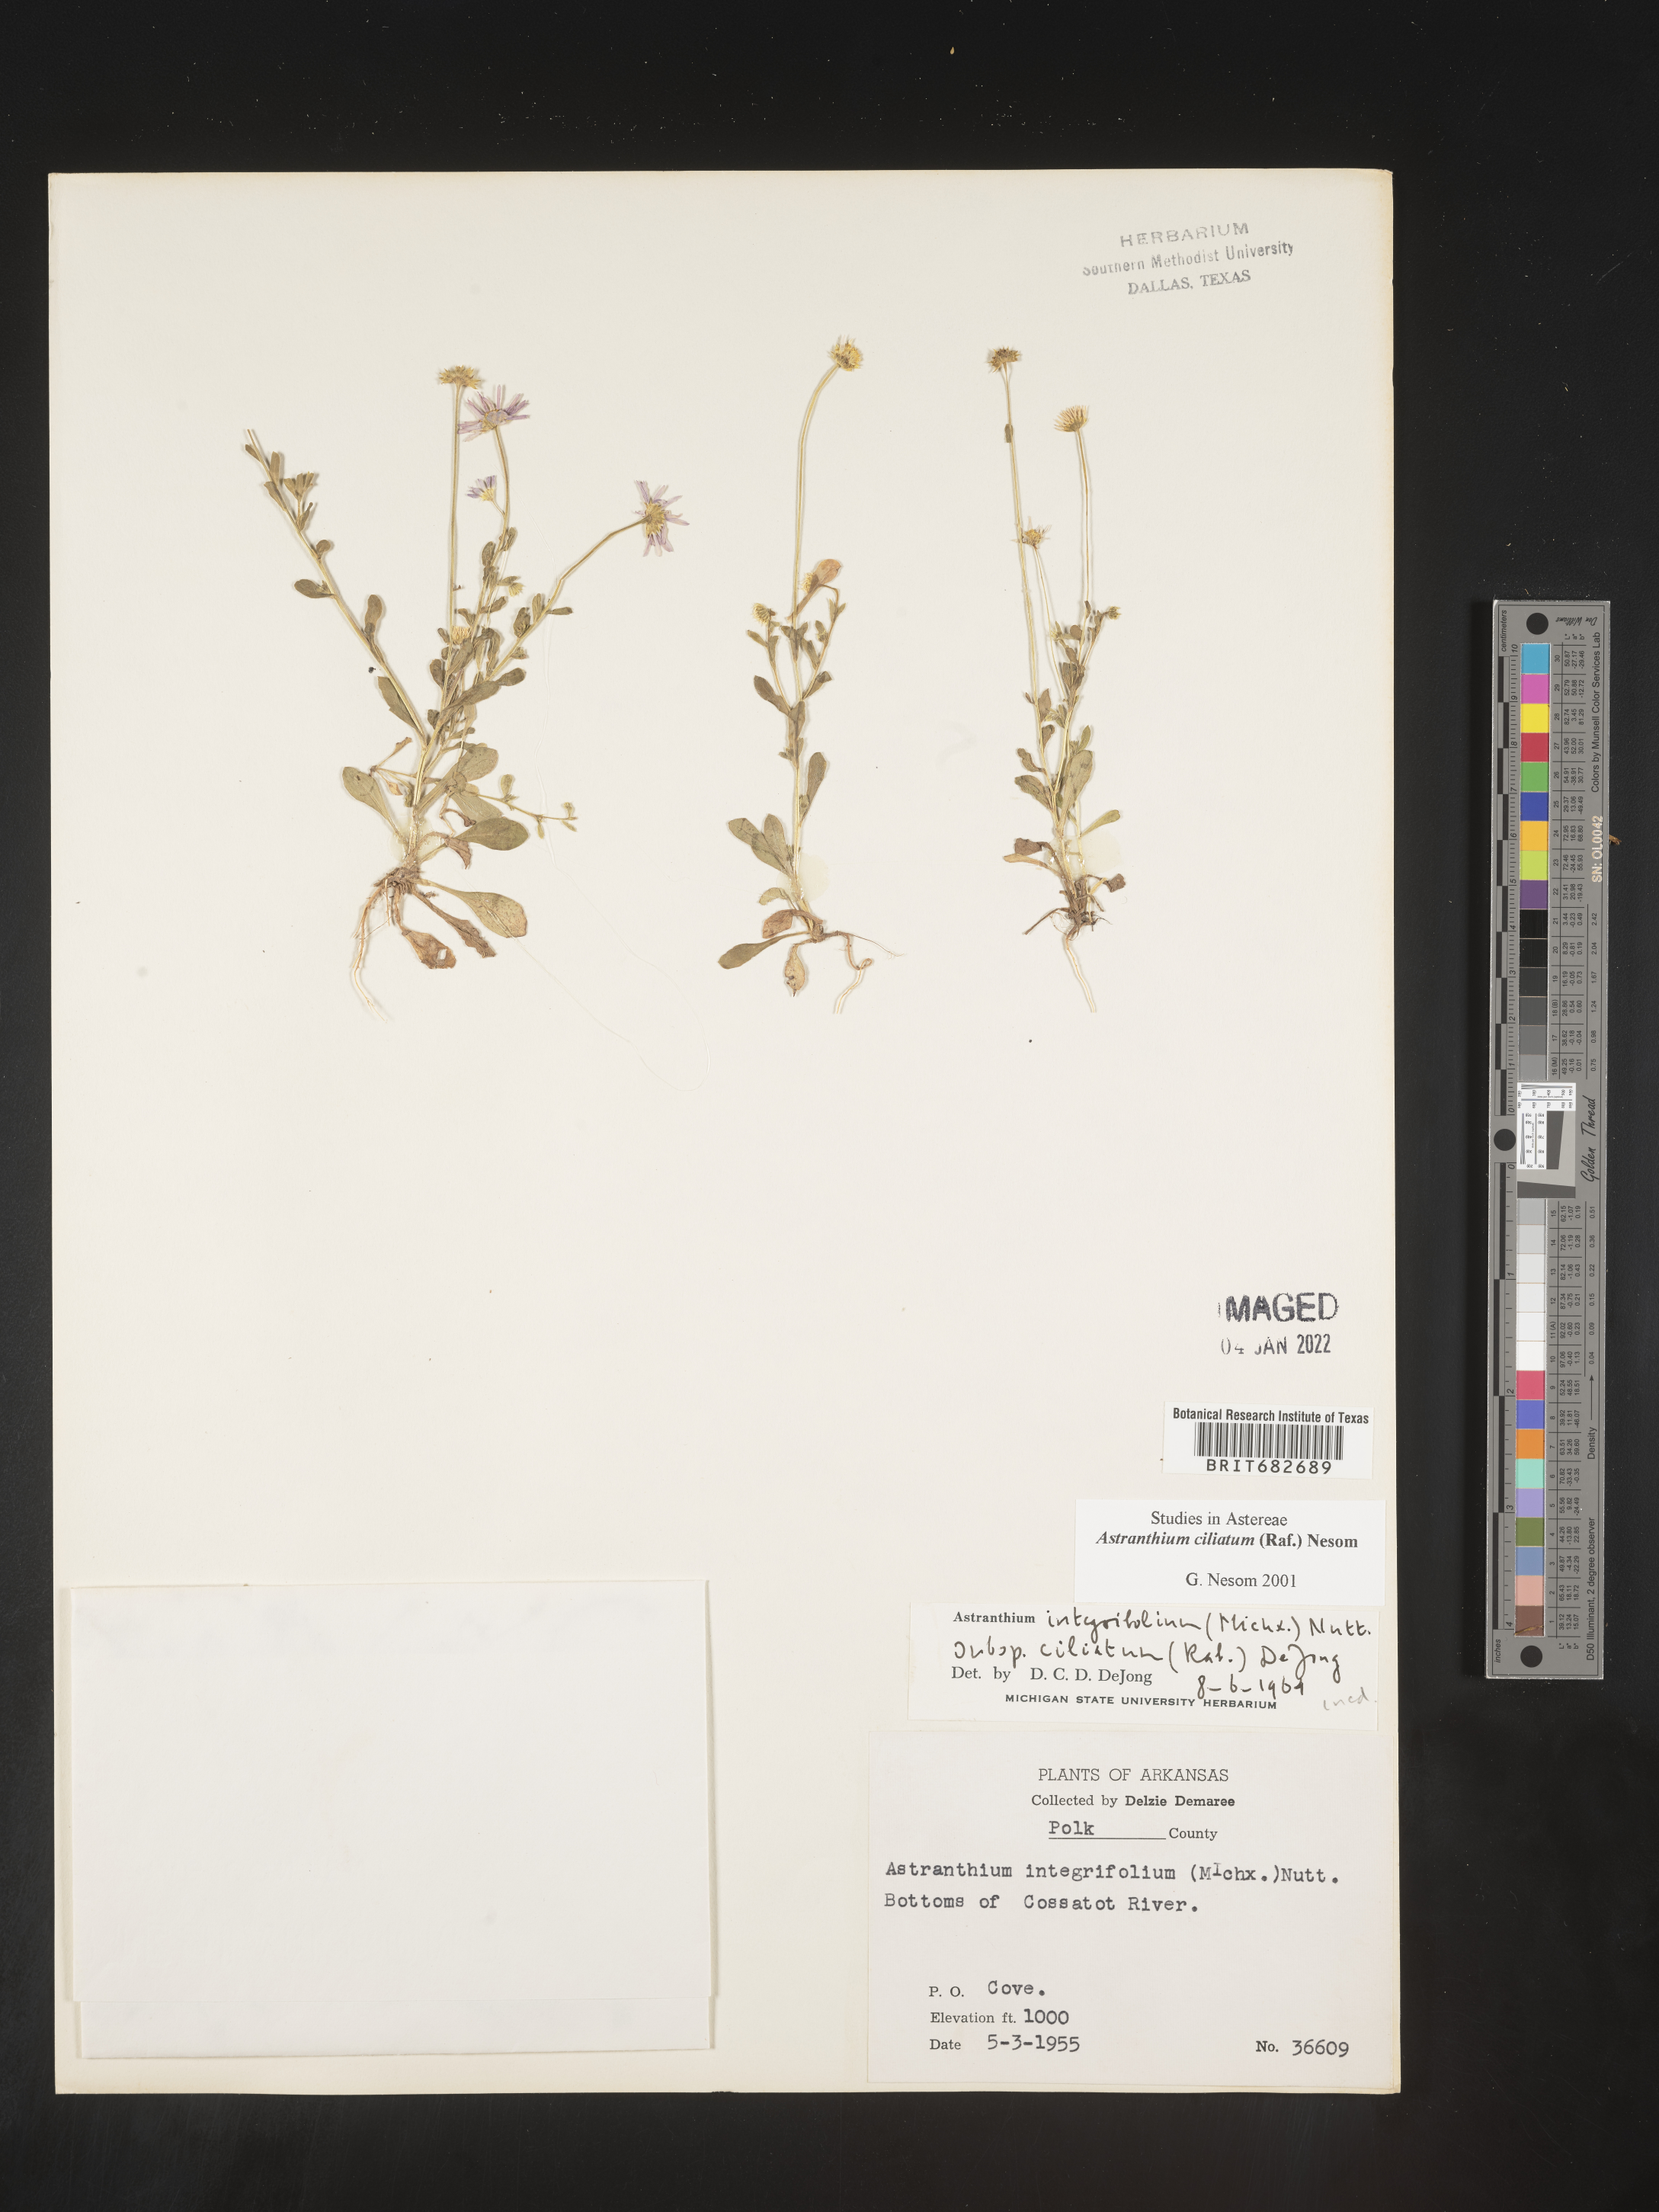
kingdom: Plantae
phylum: Tracheophyta
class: Magnoliopsida
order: Asterales
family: Asteraceae
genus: Astranthium
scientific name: Astranthium ciliatum
